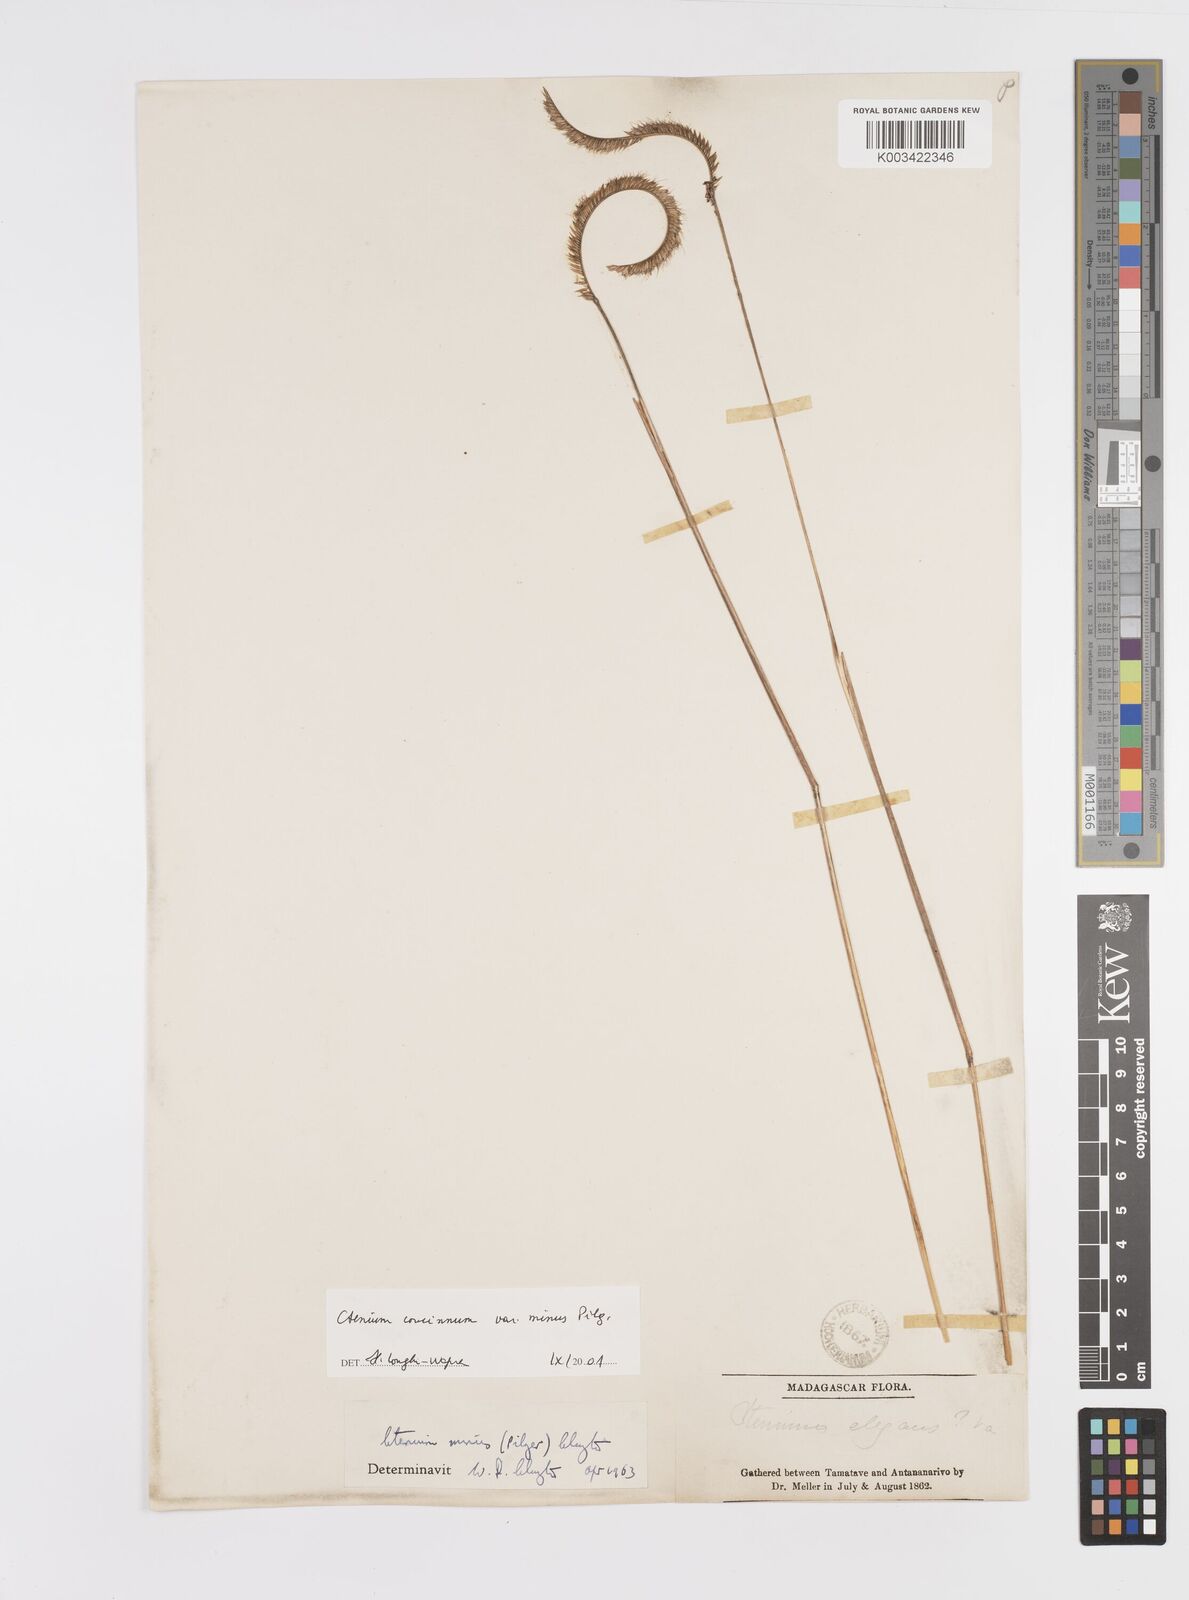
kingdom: Plantae
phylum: Tracheophyta
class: Liliopsida
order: Poales
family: Poaceae
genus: Ctenium
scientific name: Ctenium concinnum
